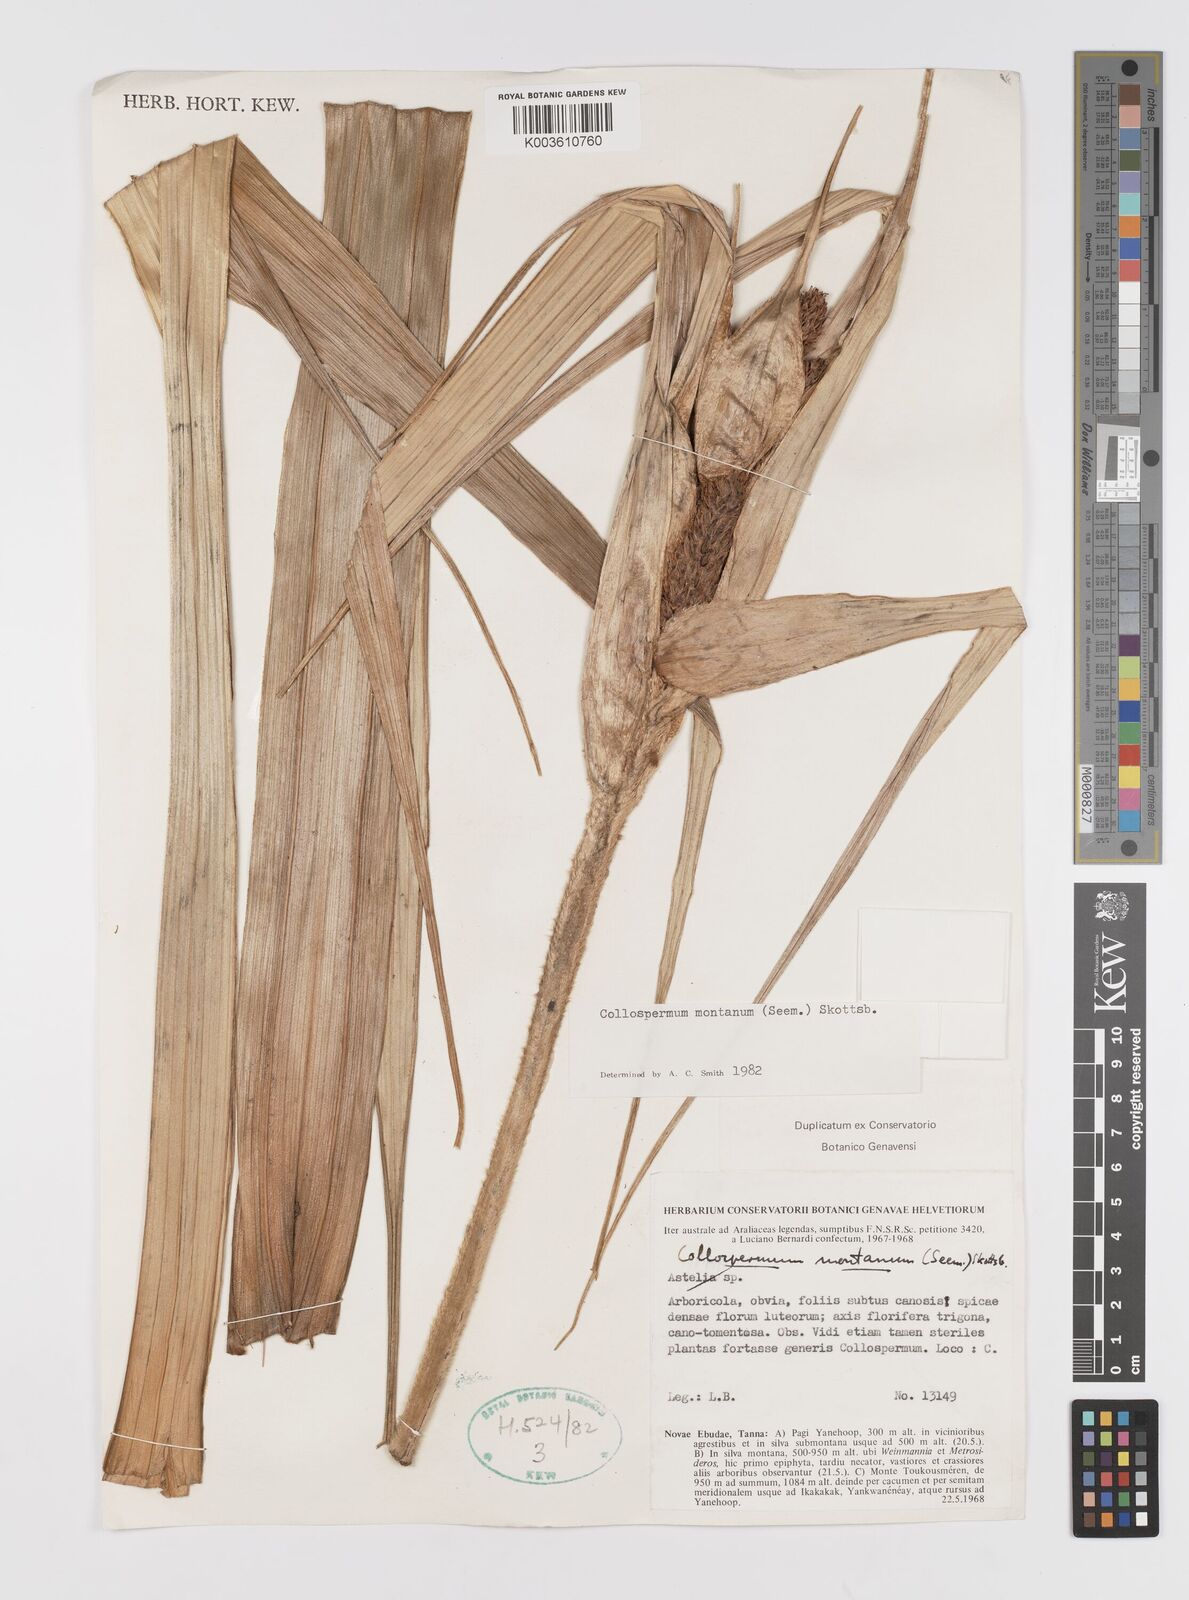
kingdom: Plantae
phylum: Tracheophyta
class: Liliopsida
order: Asparagales
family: Asteliaceae
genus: Astelia
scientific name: Astelia montana
